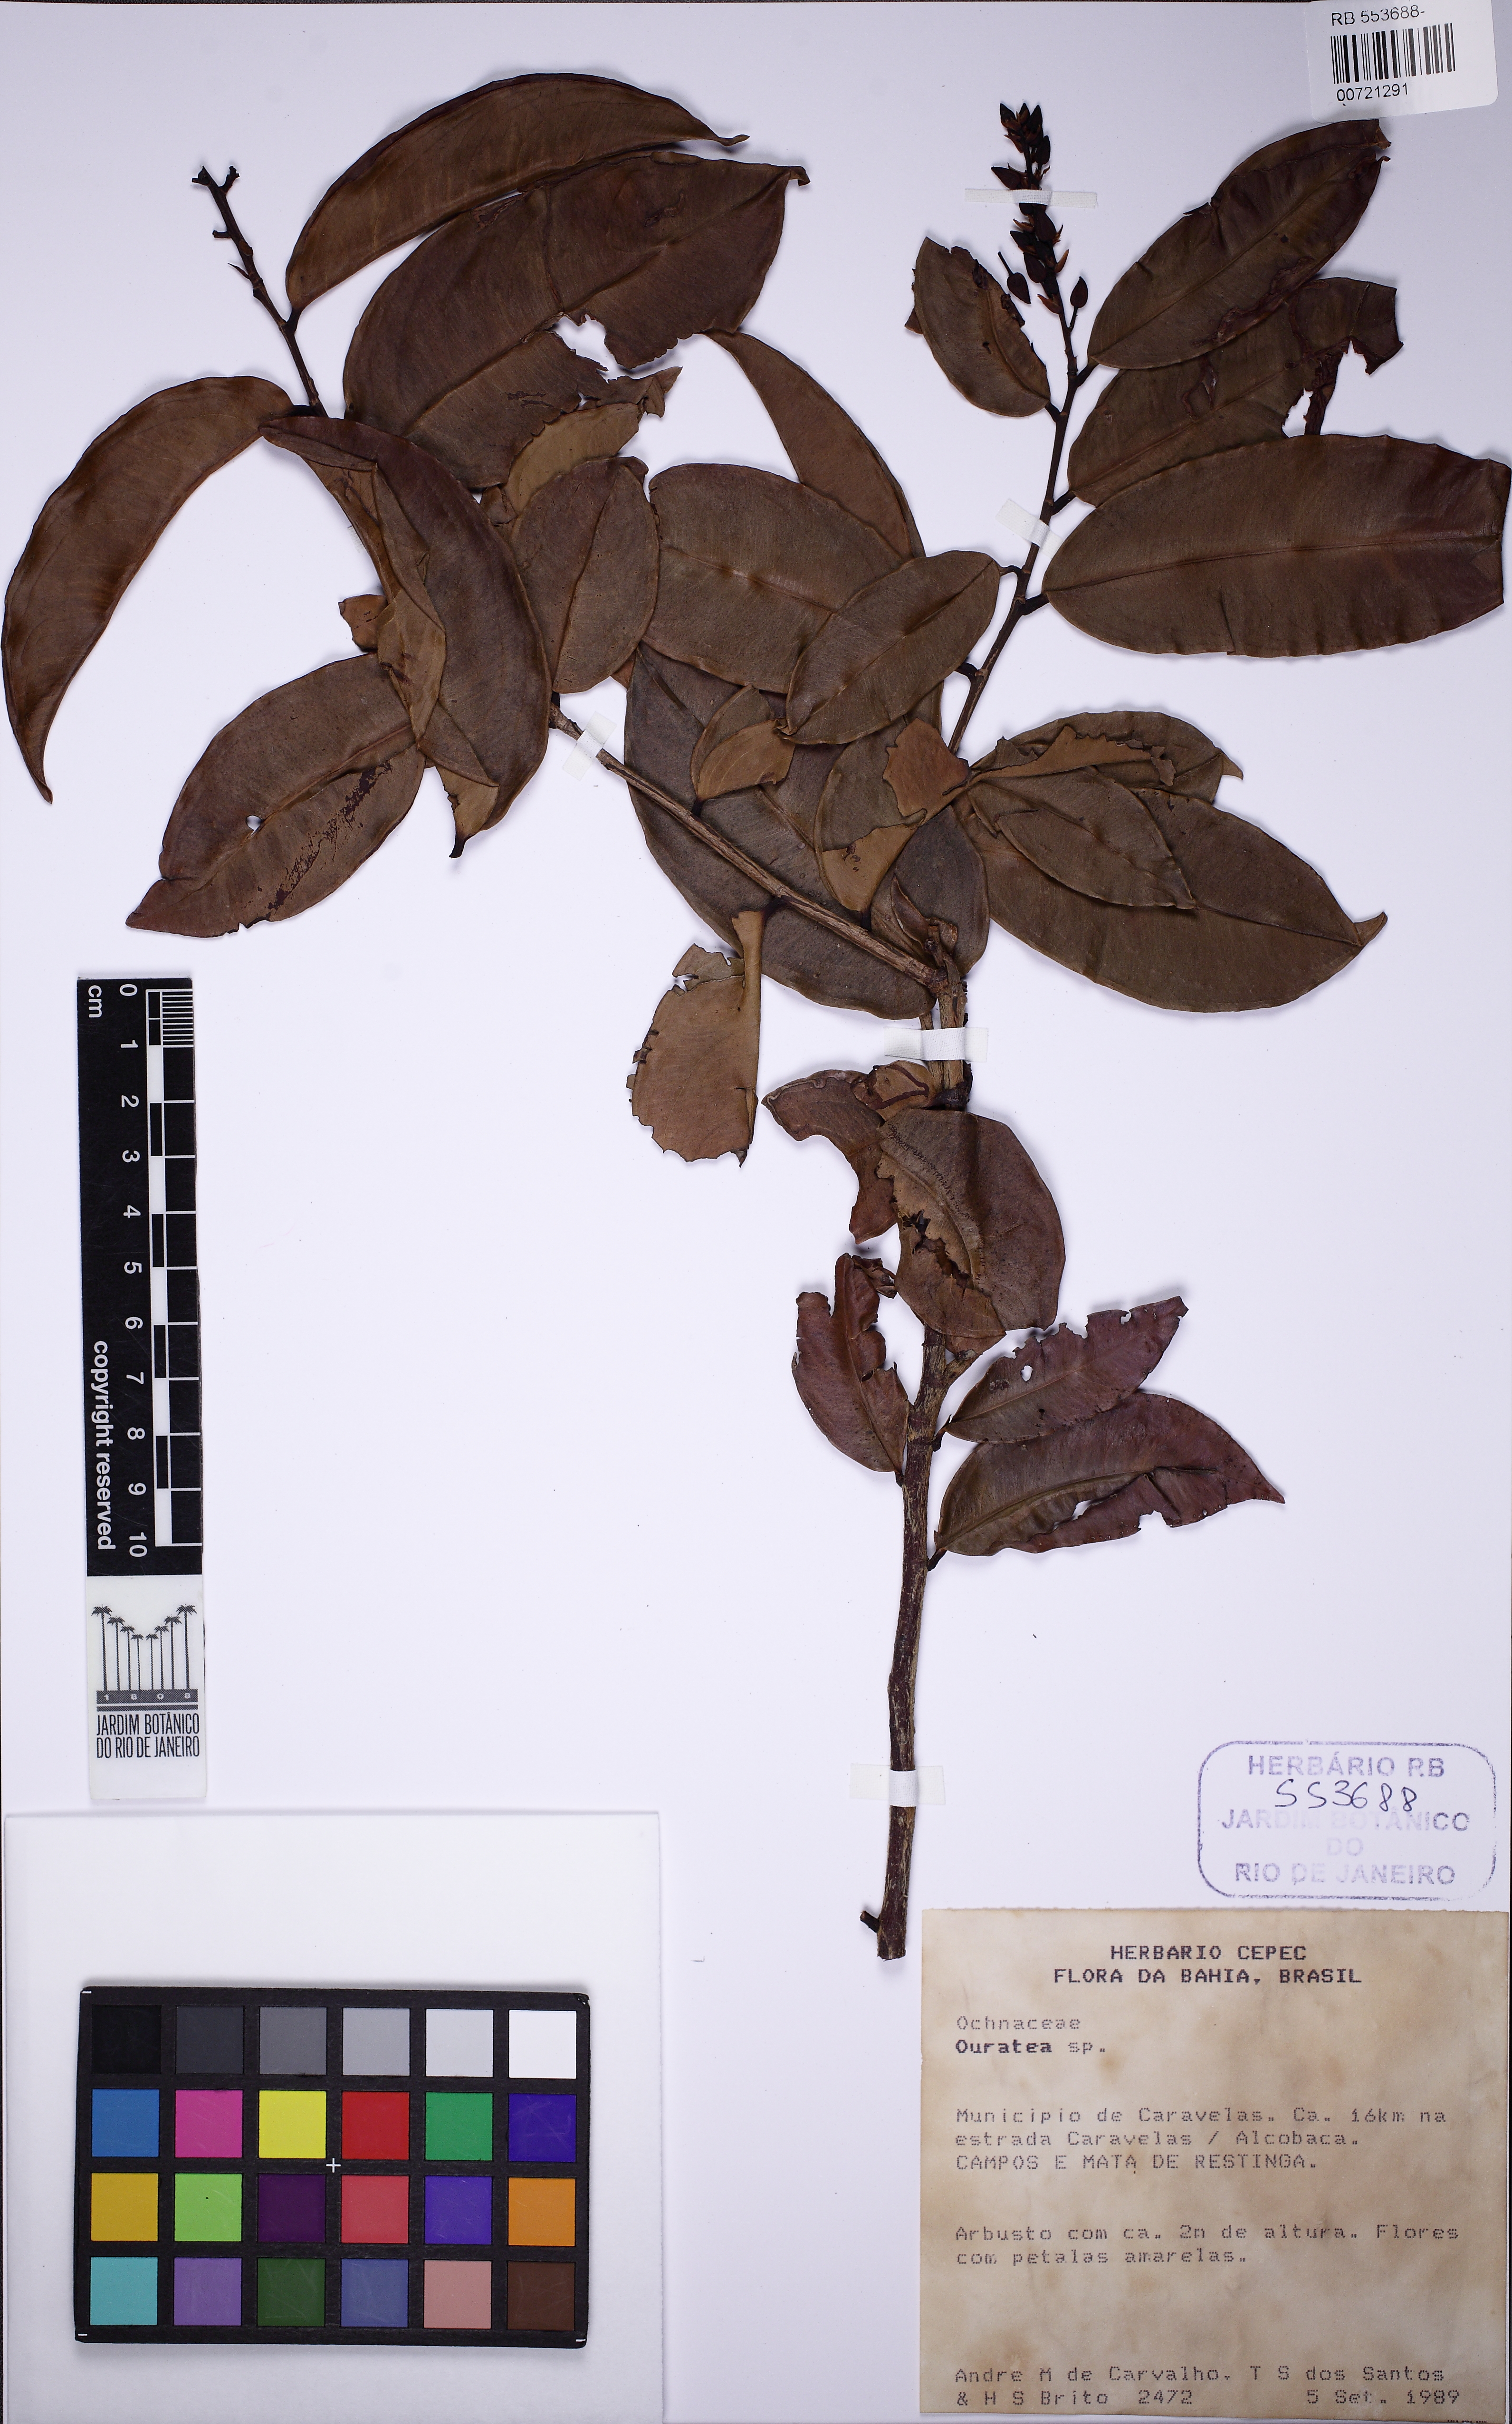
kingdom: Plantae
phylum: Tracheophyta
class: Magnoliopsida
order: Malpighiales
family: Ochnaceae
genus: Ouratea
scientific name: Ouratea
